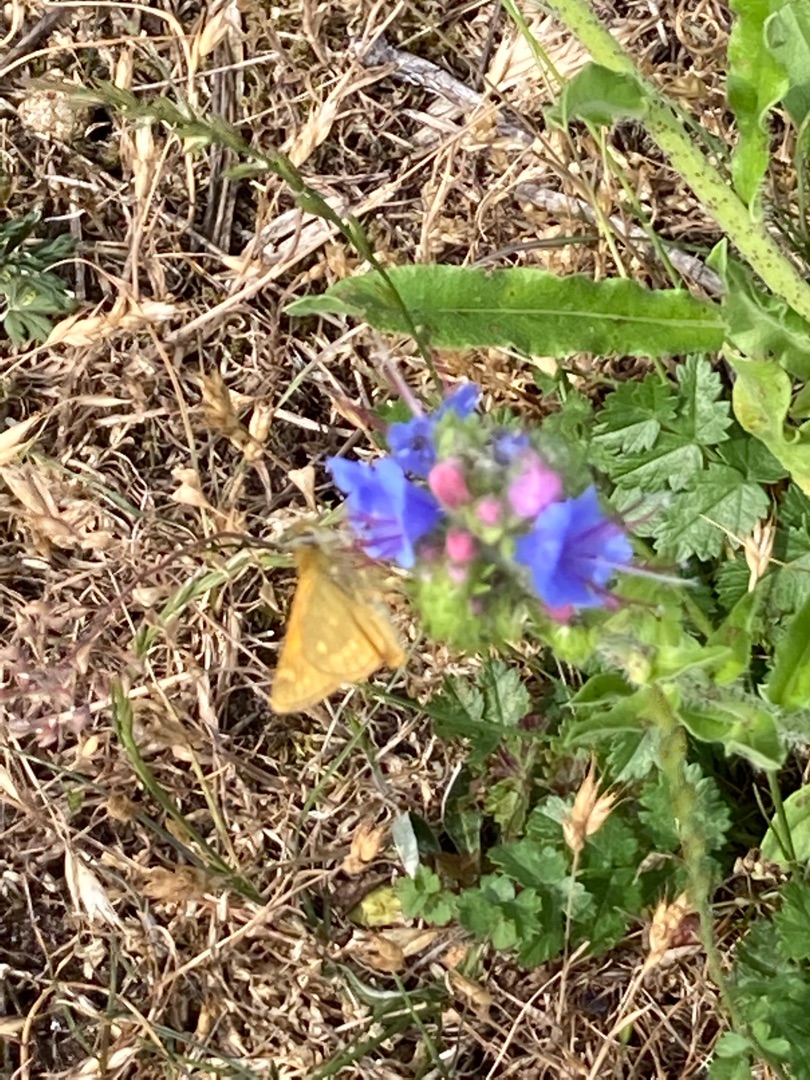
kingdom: Animalia
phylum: Arthropoda
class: Insecta
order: Lepidoptera
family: Hesperiidae
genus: Ochlodes
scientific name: Ochlodes venata
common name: Stor bredpande
